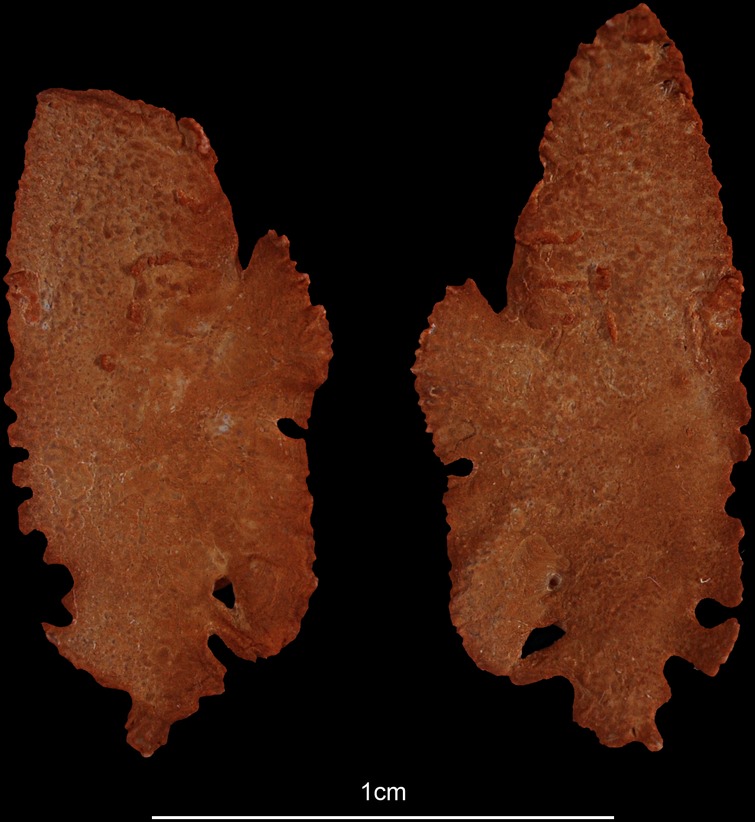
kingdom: Animalia
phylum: Chordata
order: Perciformes
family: Latidae
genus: Lates
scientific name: Lates niloticus
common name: Nile perch
